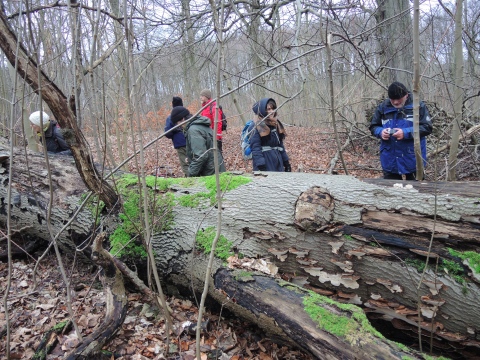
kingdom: Fungi
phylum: Basidiomycota
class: Agaricomycetes
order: Polyporales
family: Ischnodermataceae
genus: Ischnoderma
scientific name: Ischnoderma resinosum
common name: løv-tjæreporesvamp
